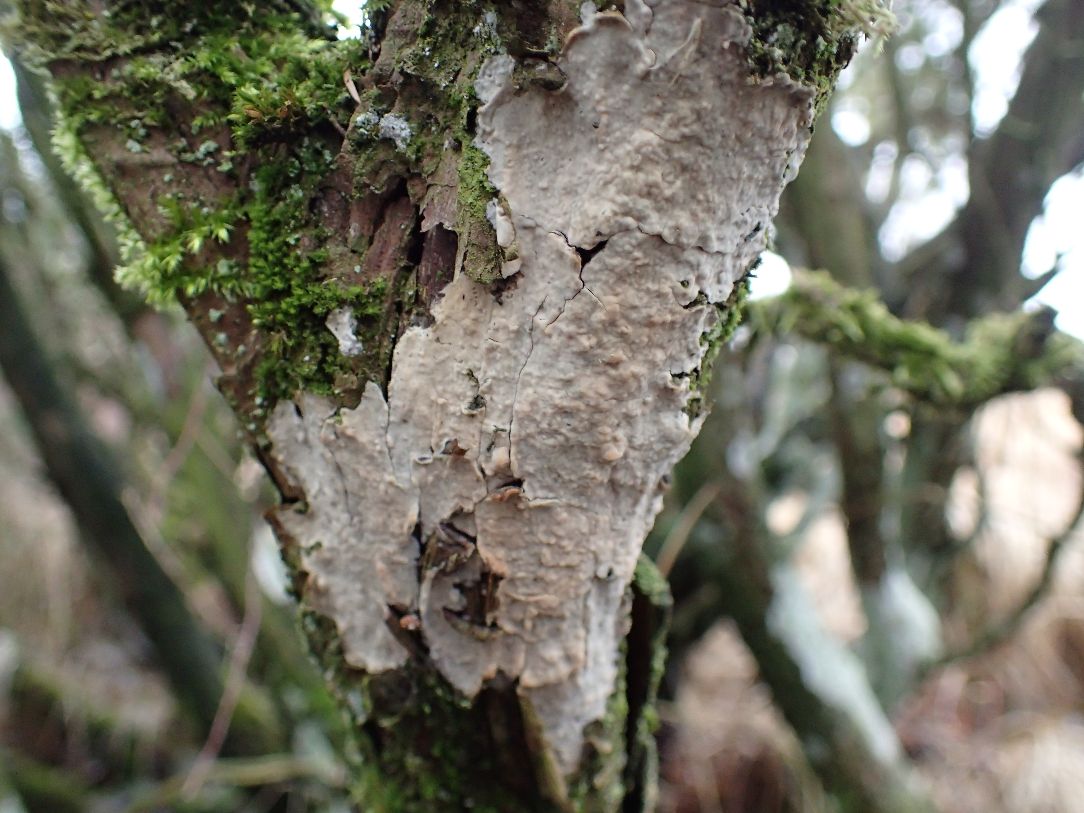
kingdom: Fungi
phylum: Basidiomycota
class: Agaricomycetes
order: Russulales
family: Echinodontiaceae
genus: Amylostereum
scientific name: Amylostereum laevigatum
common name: ene-lædersvamp
